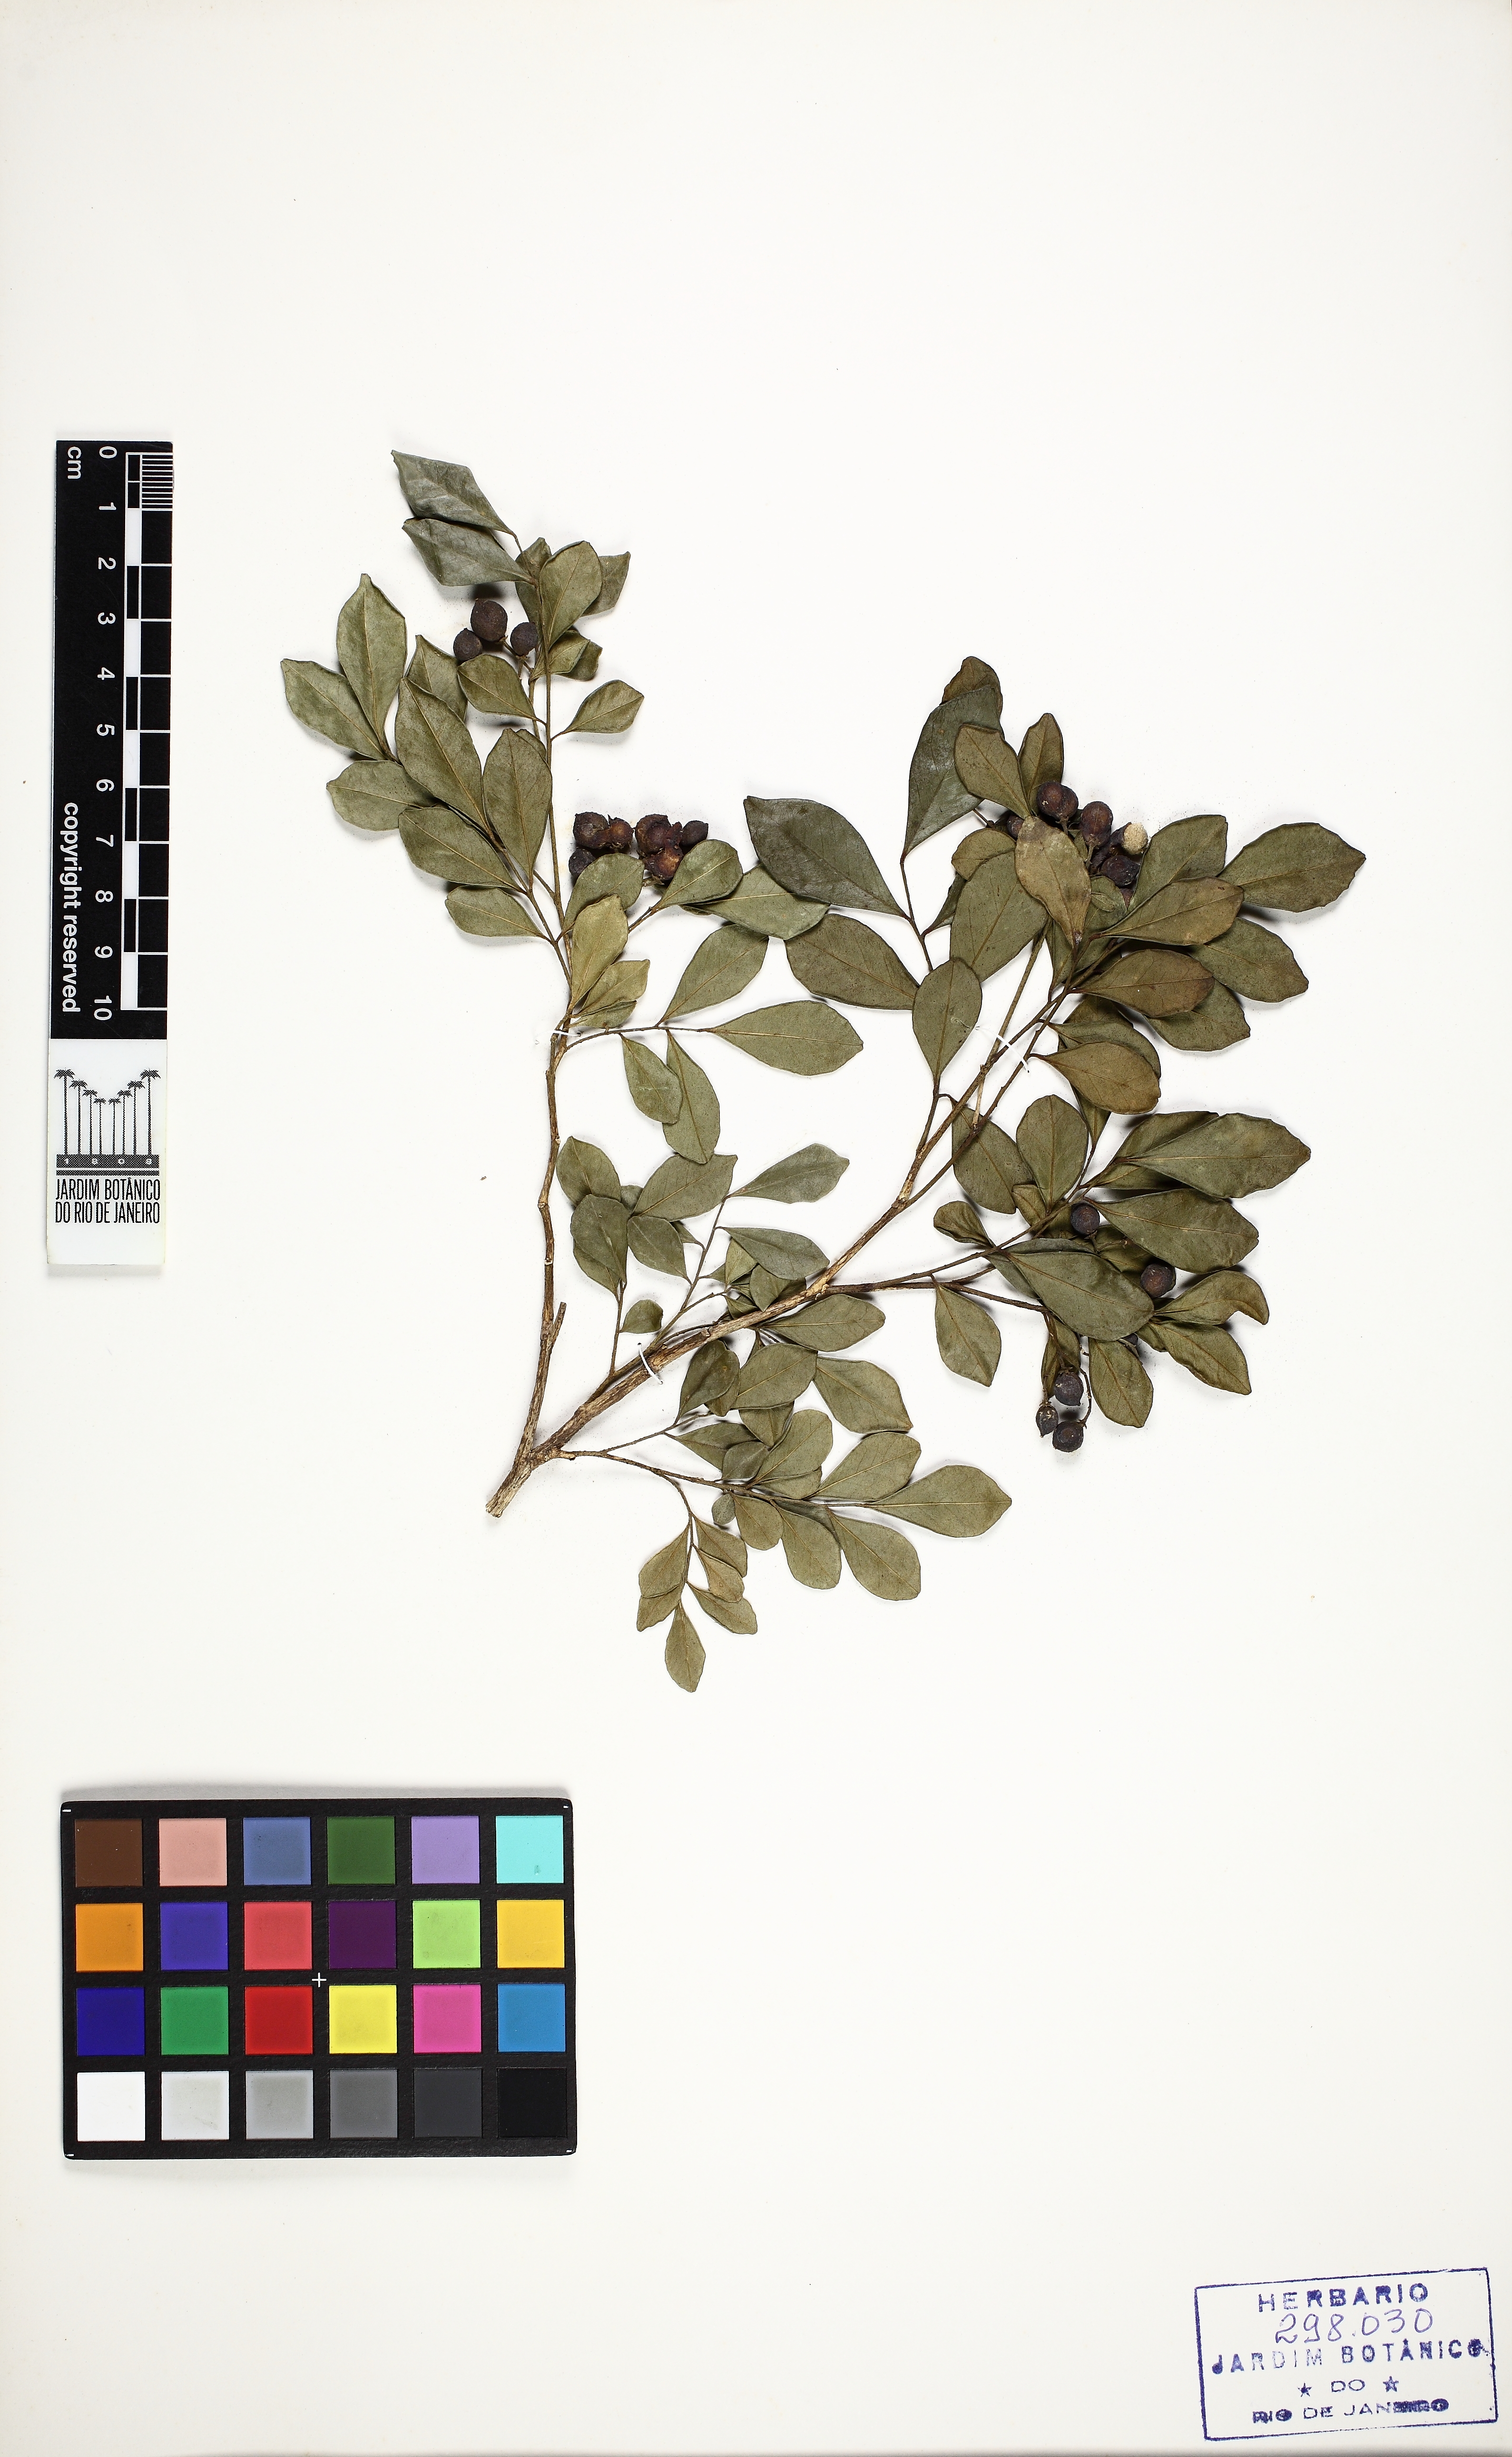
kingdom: Plantae
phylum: Tracheophyta
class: Magnoliopsida
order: Sapindales
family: Rutaceae
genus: Murraya
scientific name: Murraya paniculata
